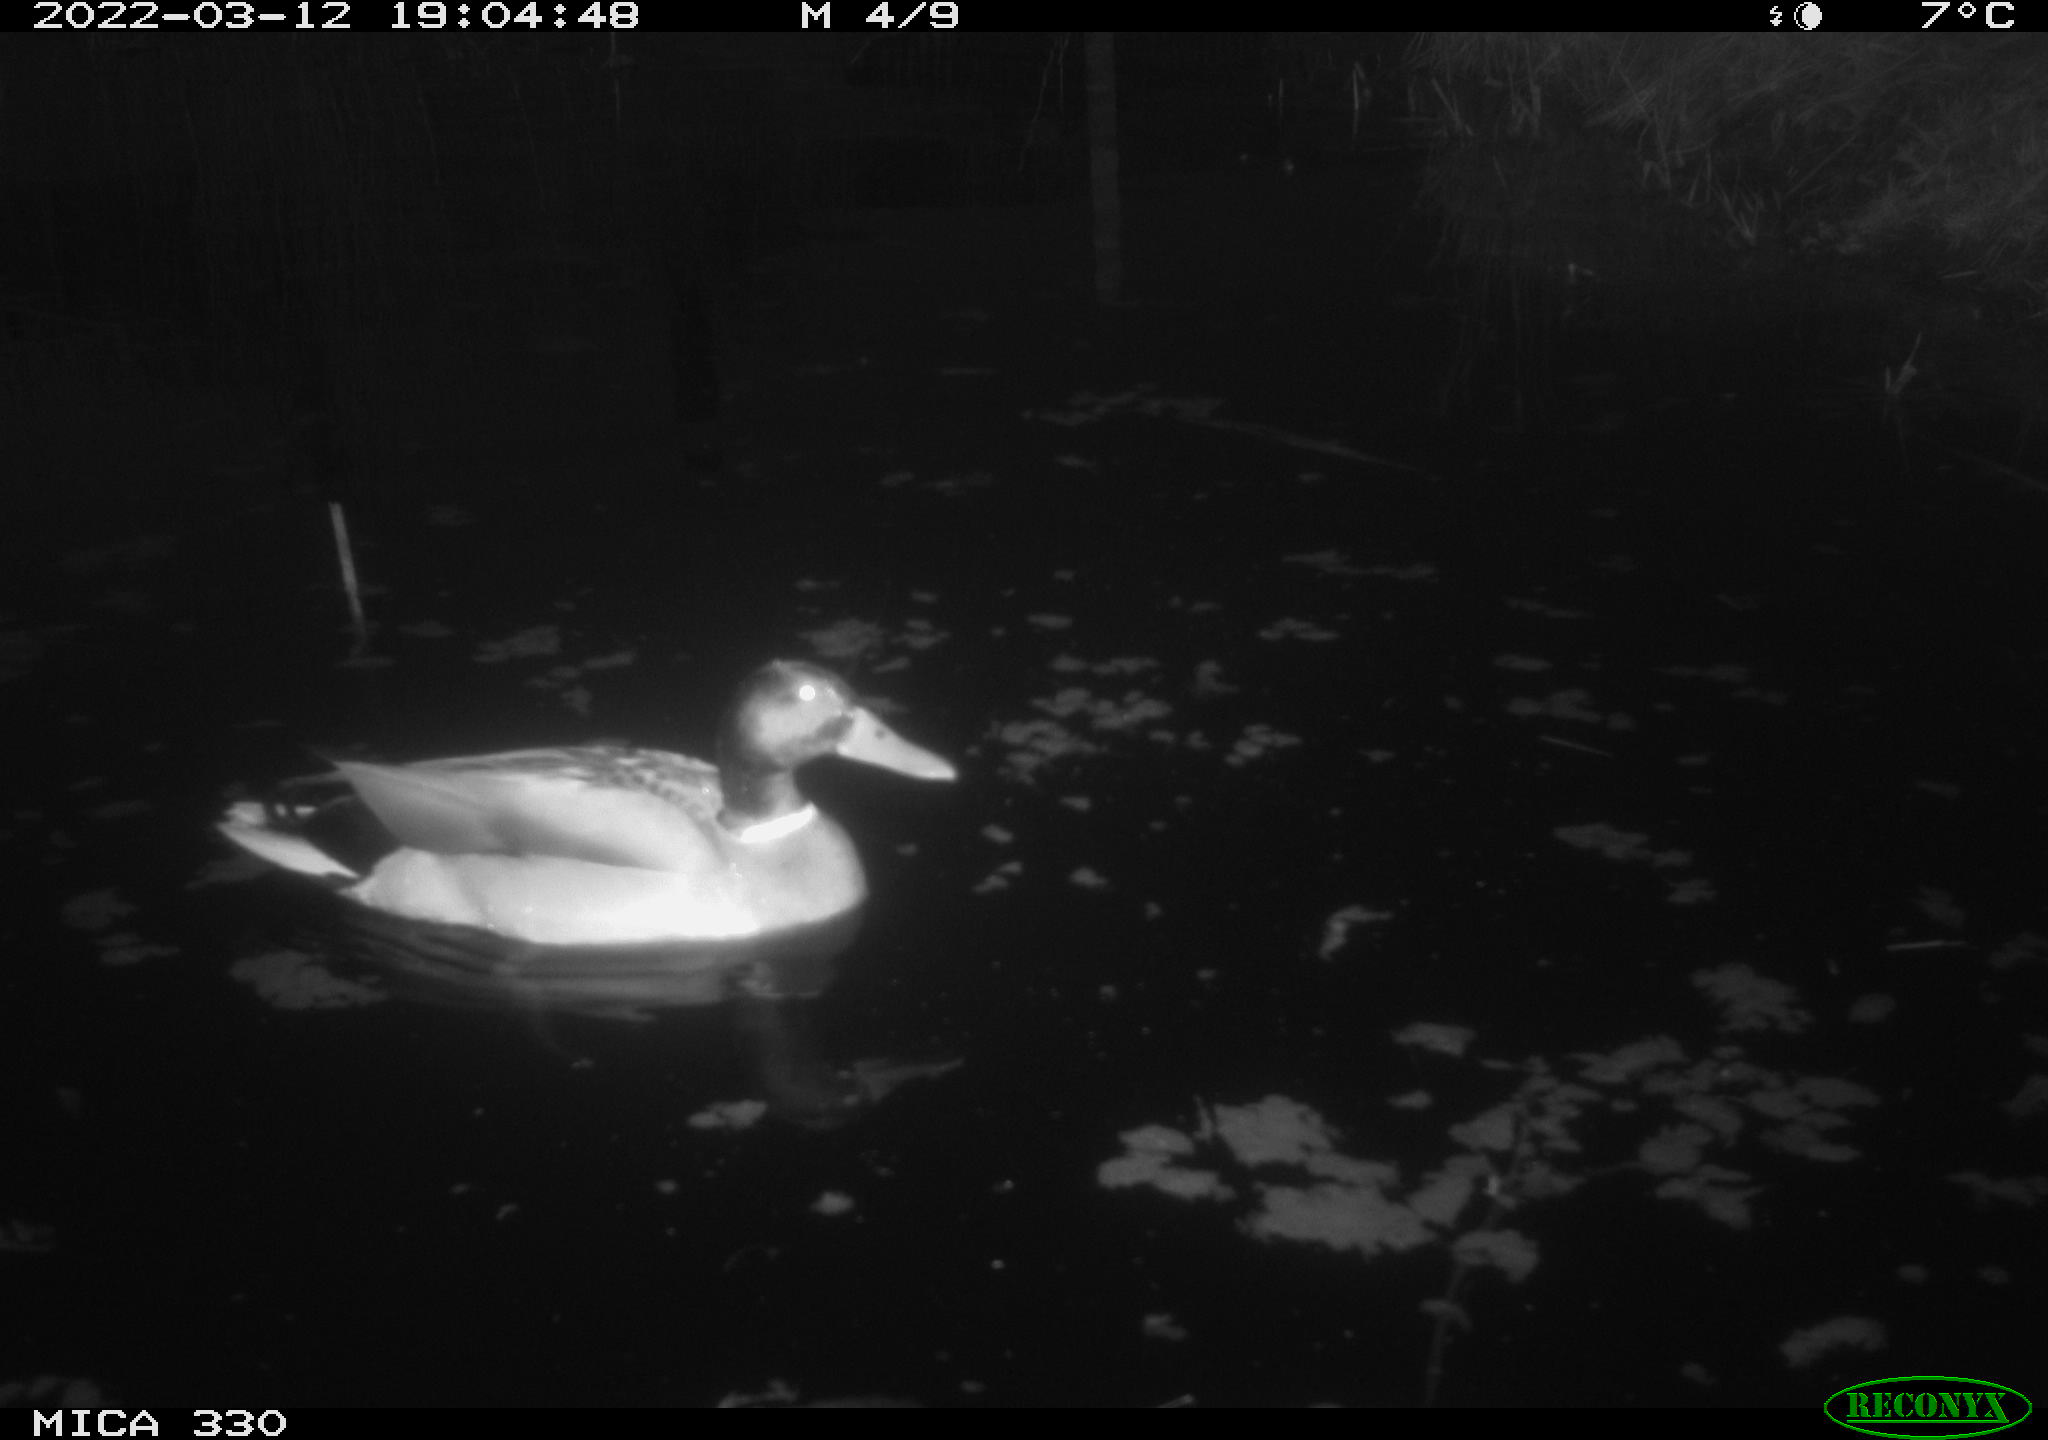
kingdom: Animalia
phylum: Chordata
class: Aves
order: Anseriformes
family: Anatidae
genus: Anas
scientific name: Anas platyrhynchos
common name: Mallard
